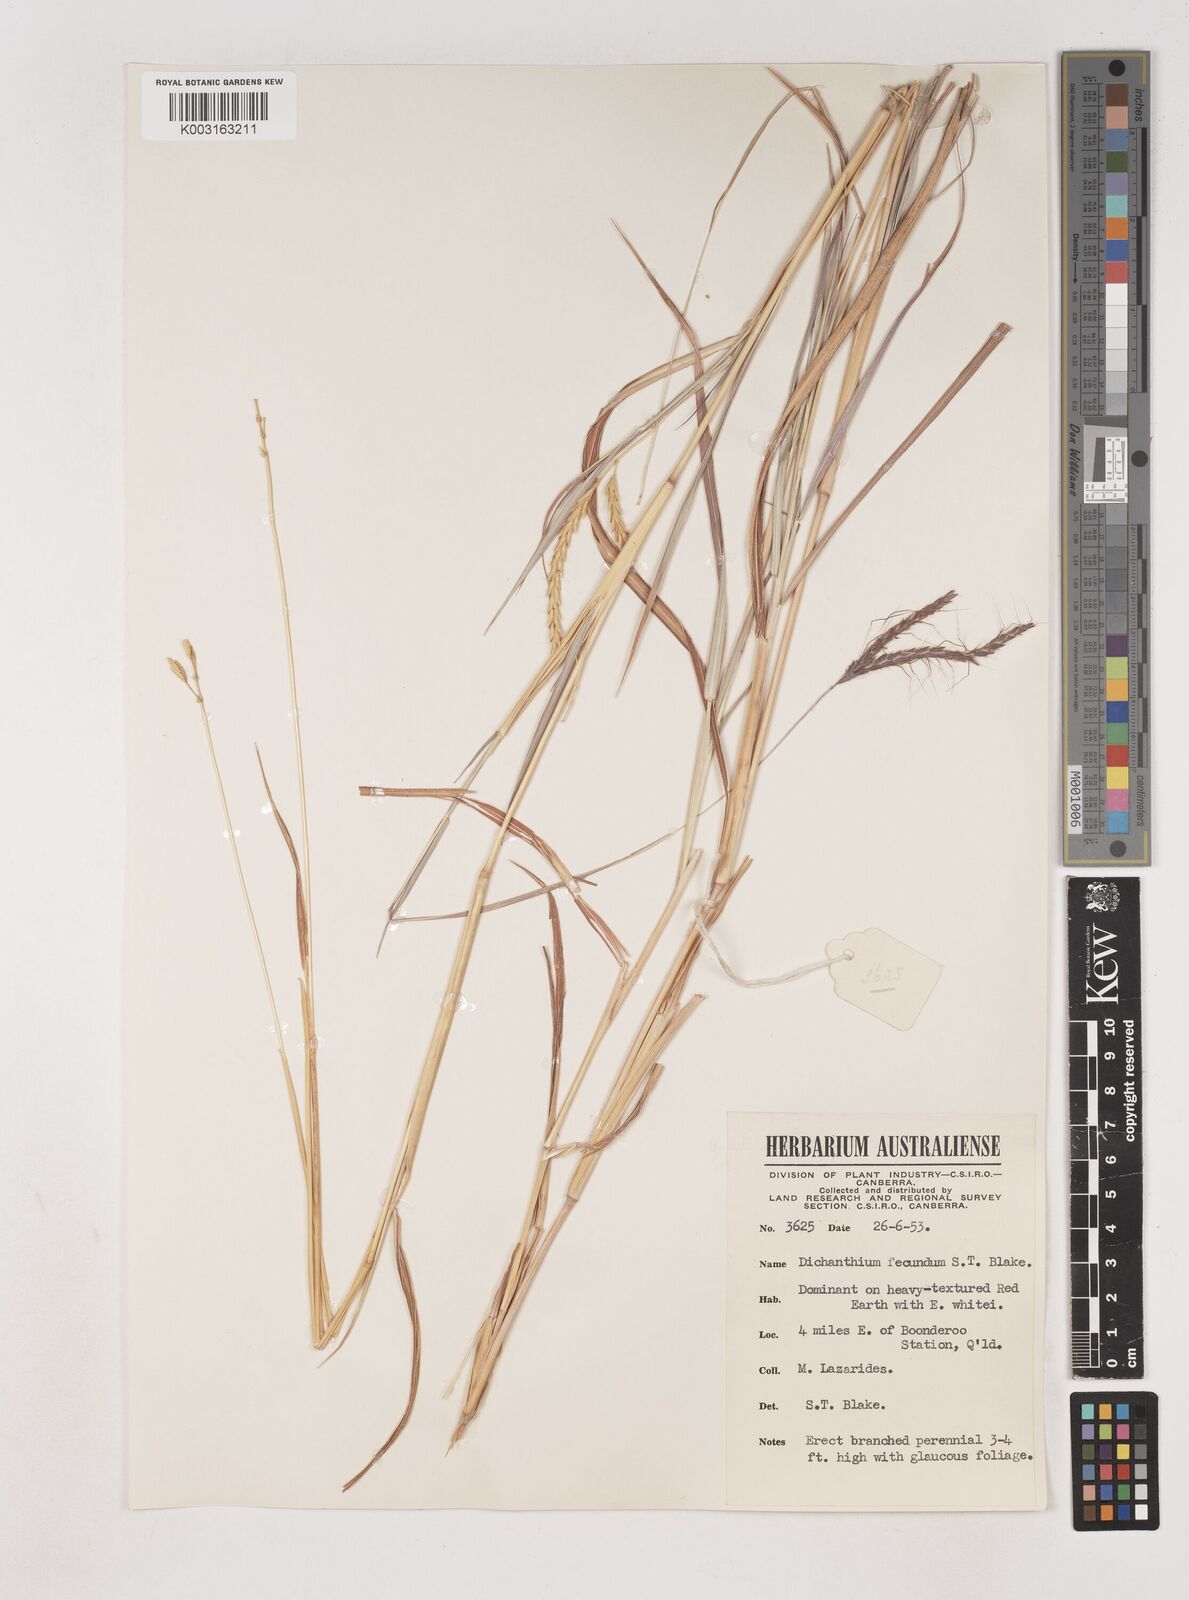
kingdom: Plantae
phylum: Tracheophyta
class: Liliopsida
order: Poales
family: Poaceae
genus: Dichanthium
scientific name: Dichanthium fecundum
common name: Bundle-bundle
